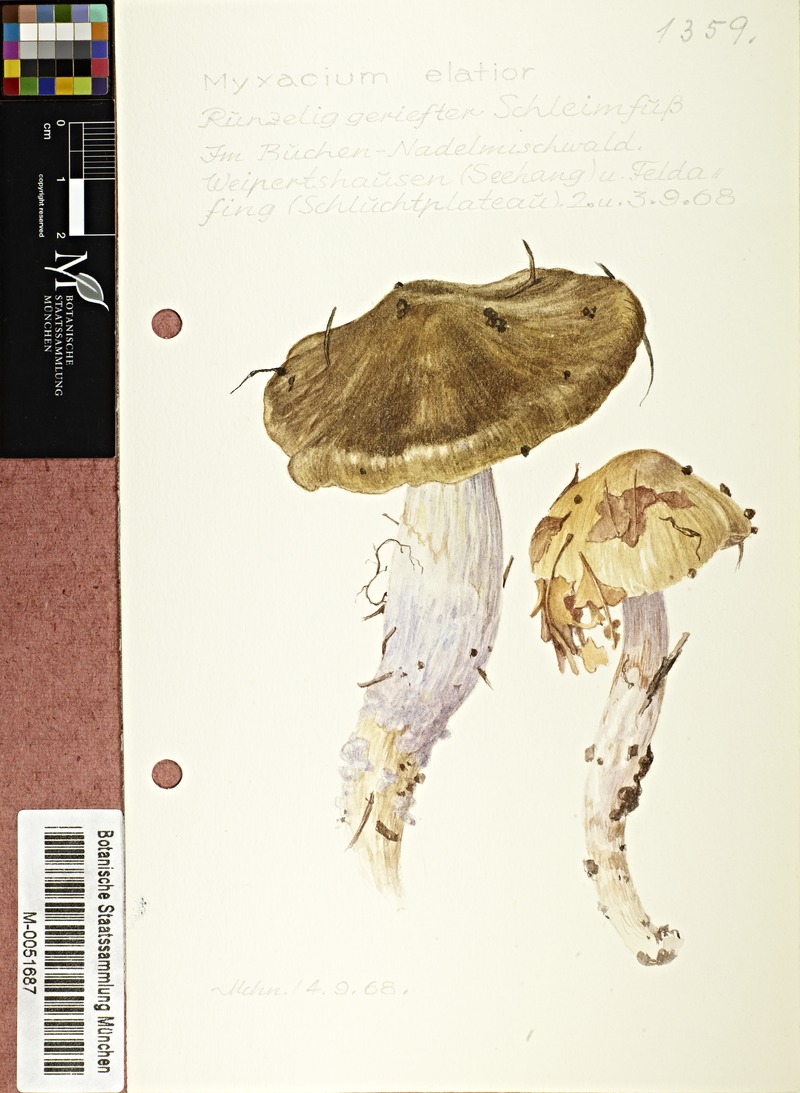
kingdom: Fungi
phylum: Basidiomycota
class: Agaricomycetes
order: Agaricales
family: Cortinariaceae
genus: Cortinarius
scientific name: Cortinarius elatior
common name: Tall webcap
